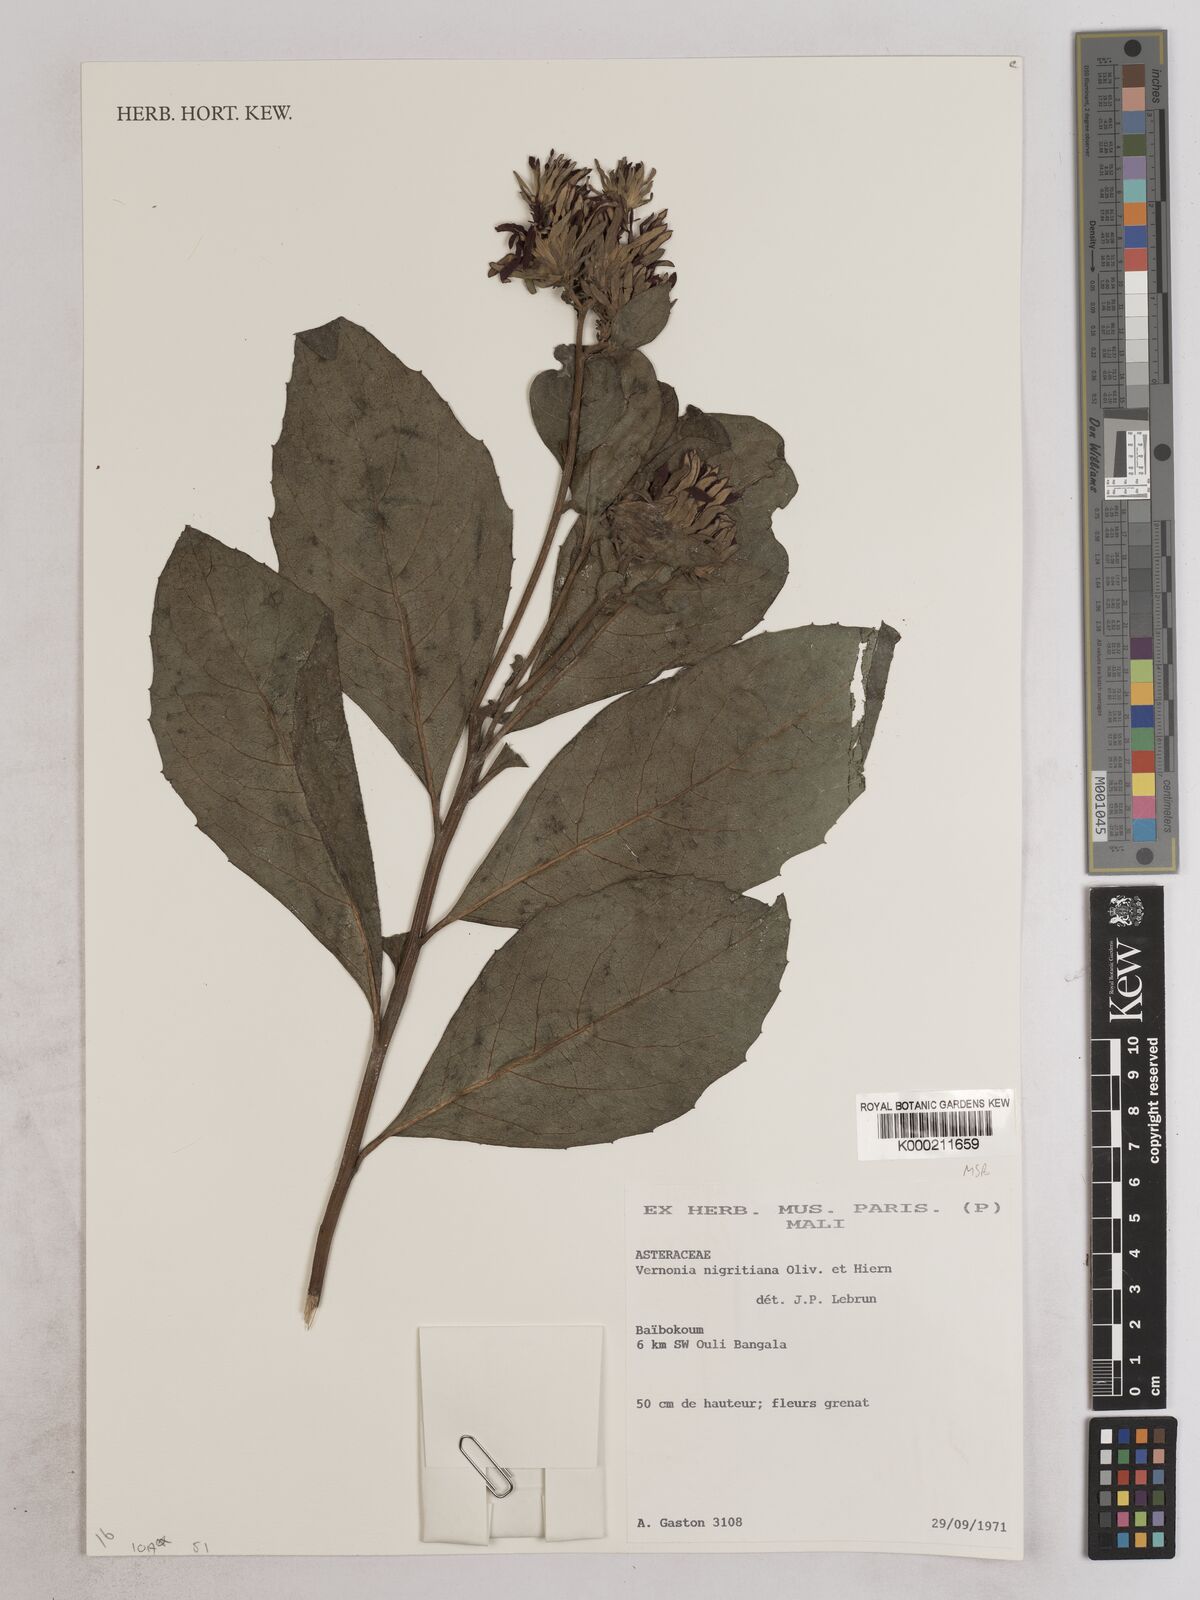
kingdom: Plantae
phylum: Tracheophyta
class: Magnoliopsida
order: Asterales
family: Asteraceae
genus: Linzia
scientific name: Linzia nigritiana
